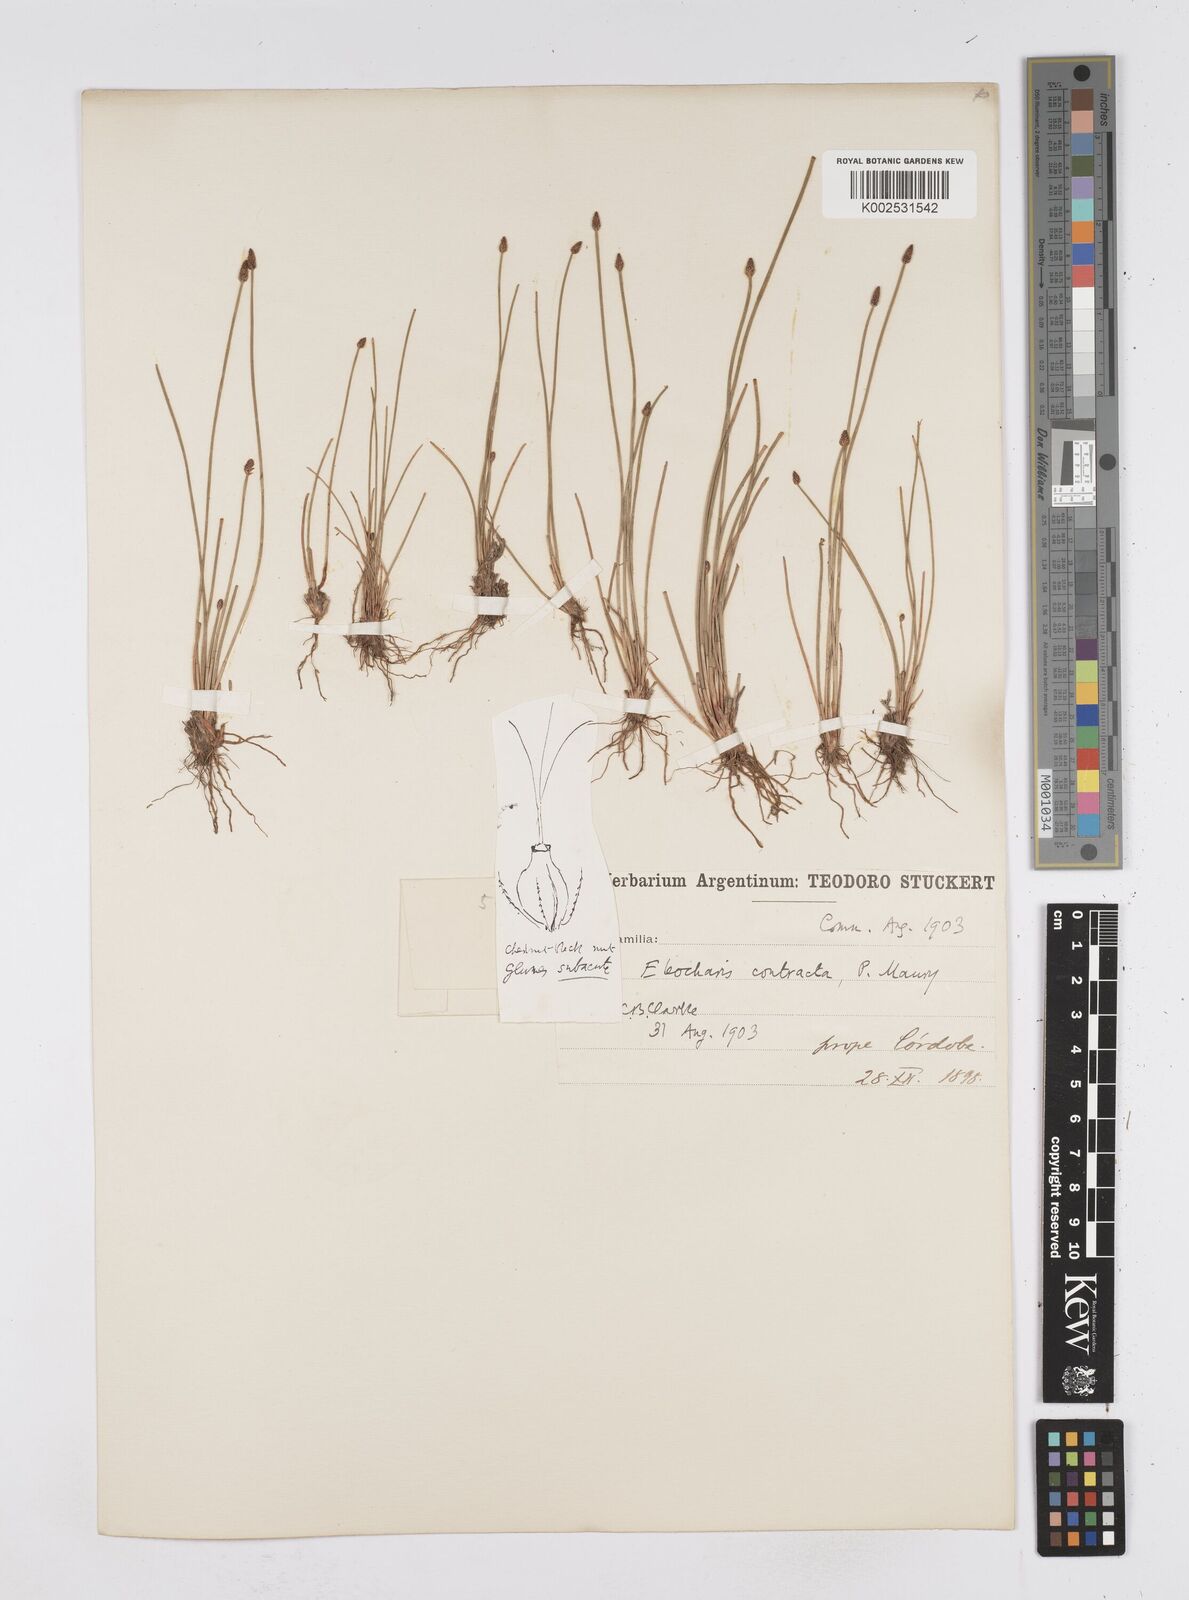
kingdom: Plantae
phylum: Tracheophyta
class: Liliopsida
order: Poales
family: Cyperaceae
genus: Eleocharis
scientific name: Eleocharis montana
